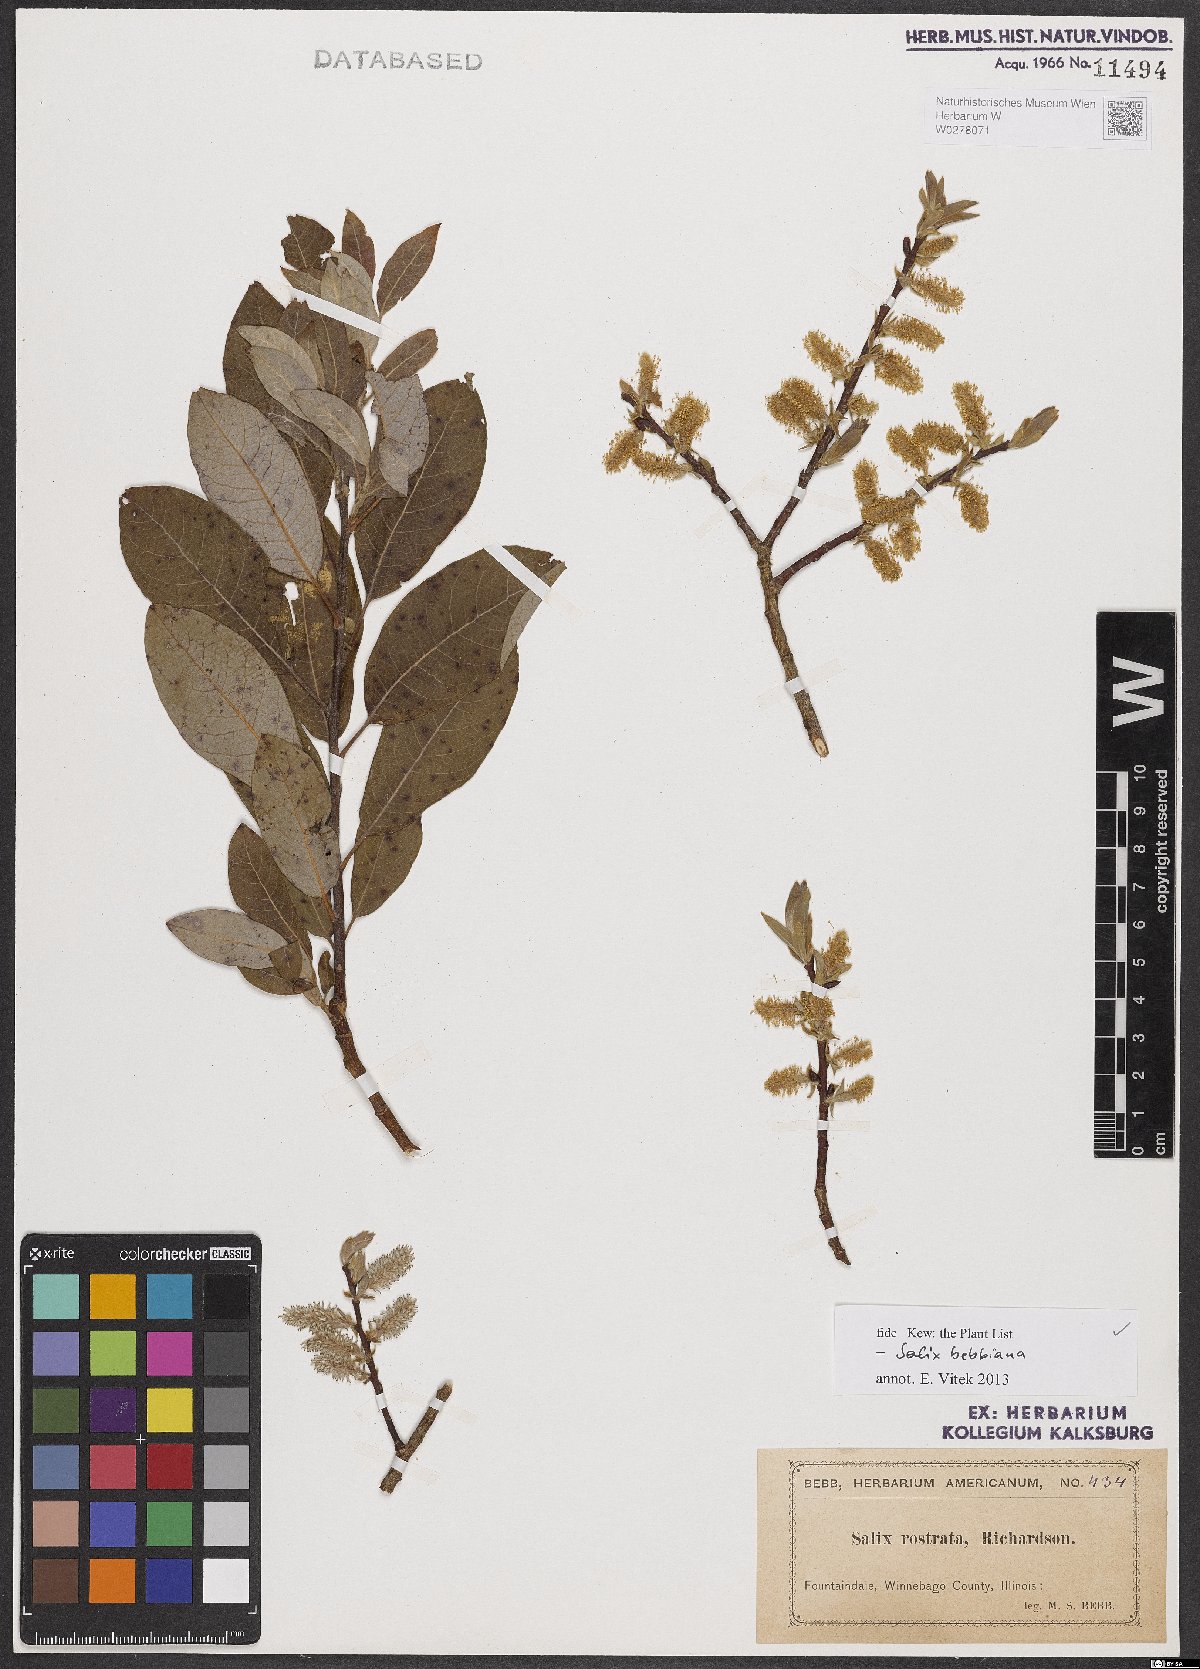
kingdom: Plantae
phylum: Tracheophyta
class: Magnoliopsida
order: Malpighiales
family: Salicaceae
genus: Salix
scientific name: Salix bebbiana
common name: Bebb's willow
